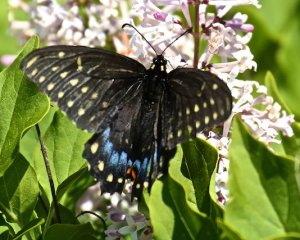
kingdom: Animalia
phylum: Arthropoda
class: Insecta
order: Lepidoptera
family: Papilionidae
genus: Papilio
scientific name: Papilio polyxenes
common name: Black Swallowtail
